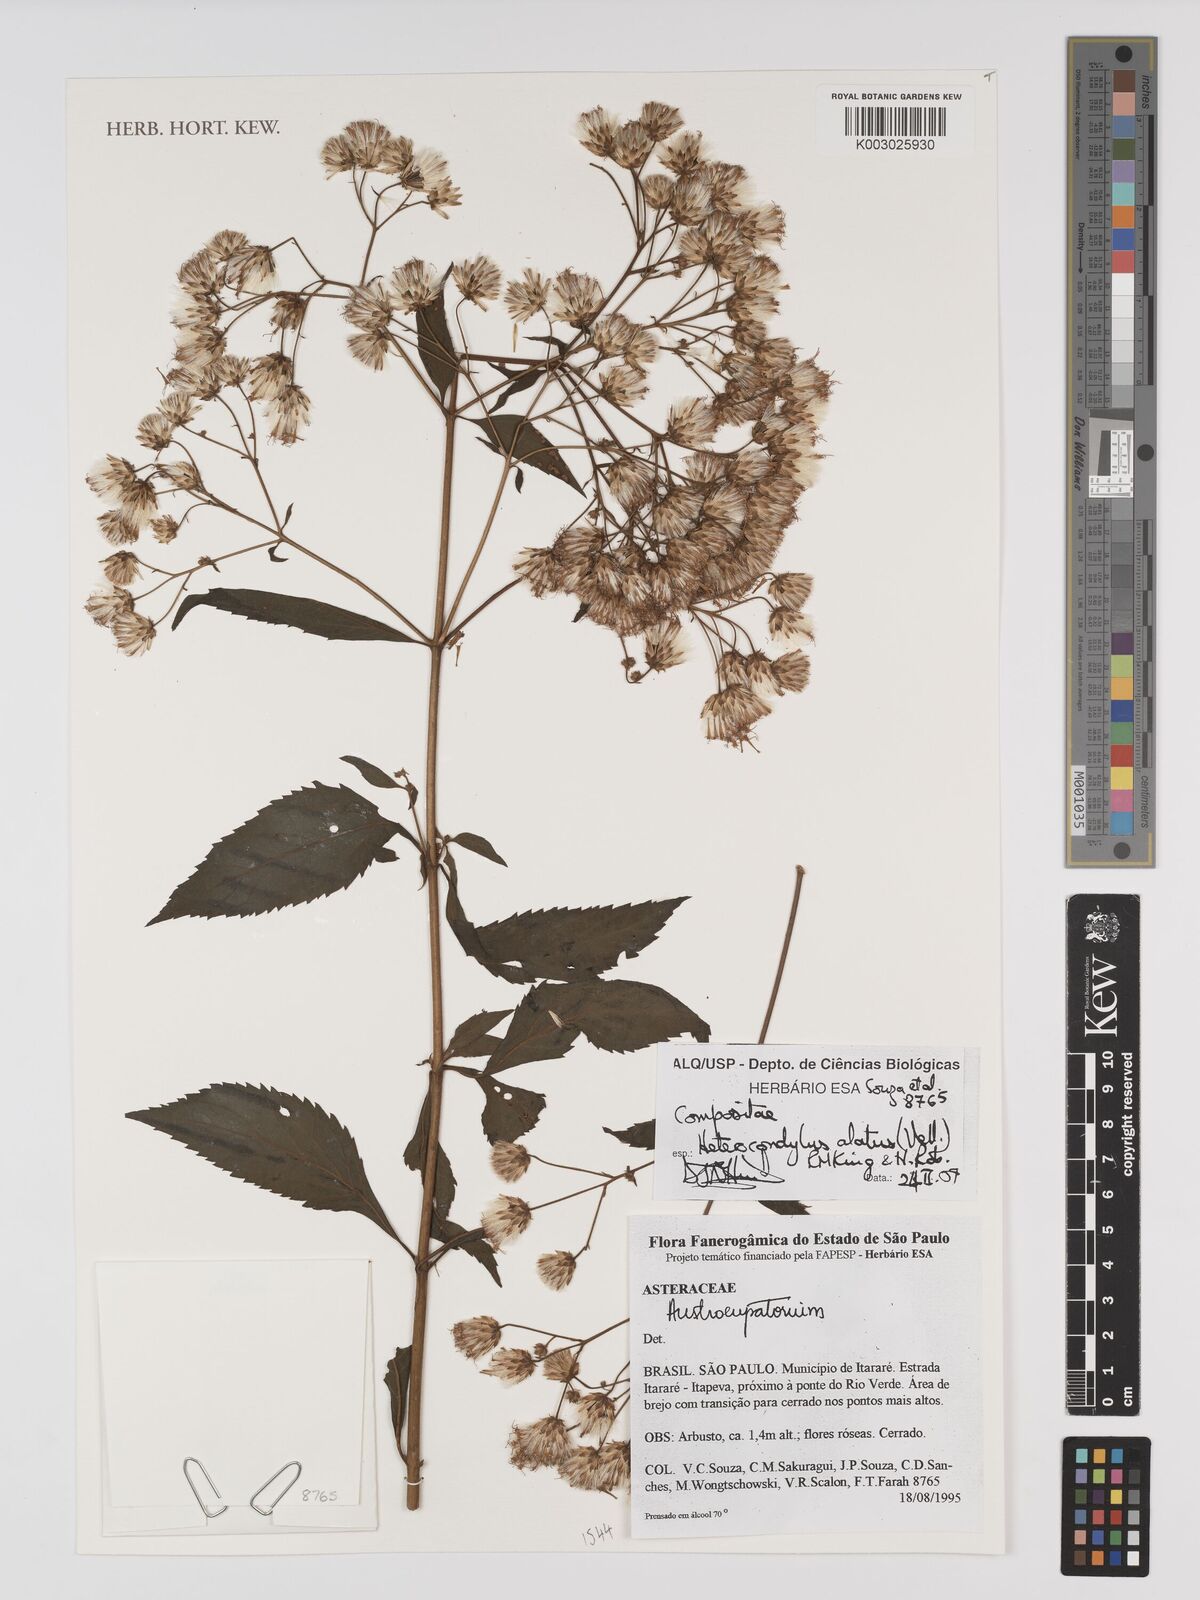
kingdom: Plantae
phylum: Tracheophyta
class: Magnoliopsida
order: Asterales
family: Asteraceae
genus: Heterocondylus
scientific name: Heterocondylus alatus
